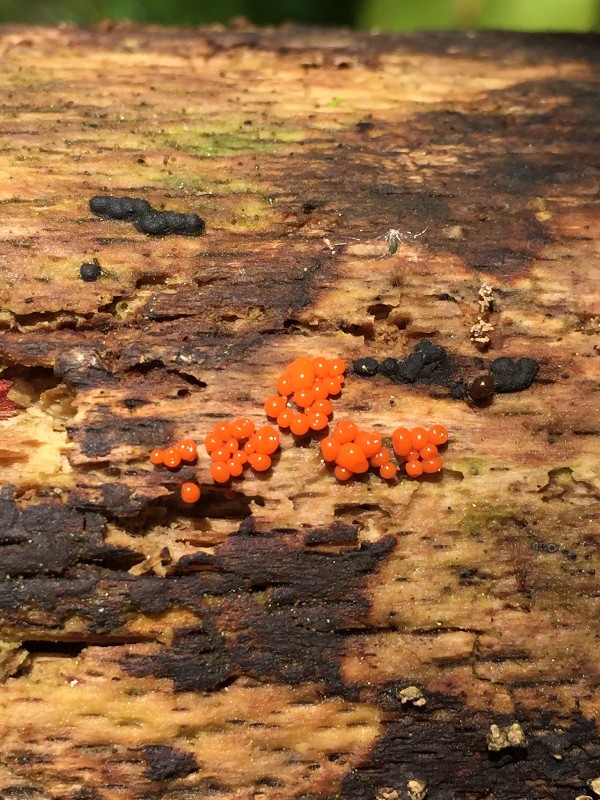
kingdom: Protozoa
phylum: Mycetozoa
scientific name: Mycetozoa
